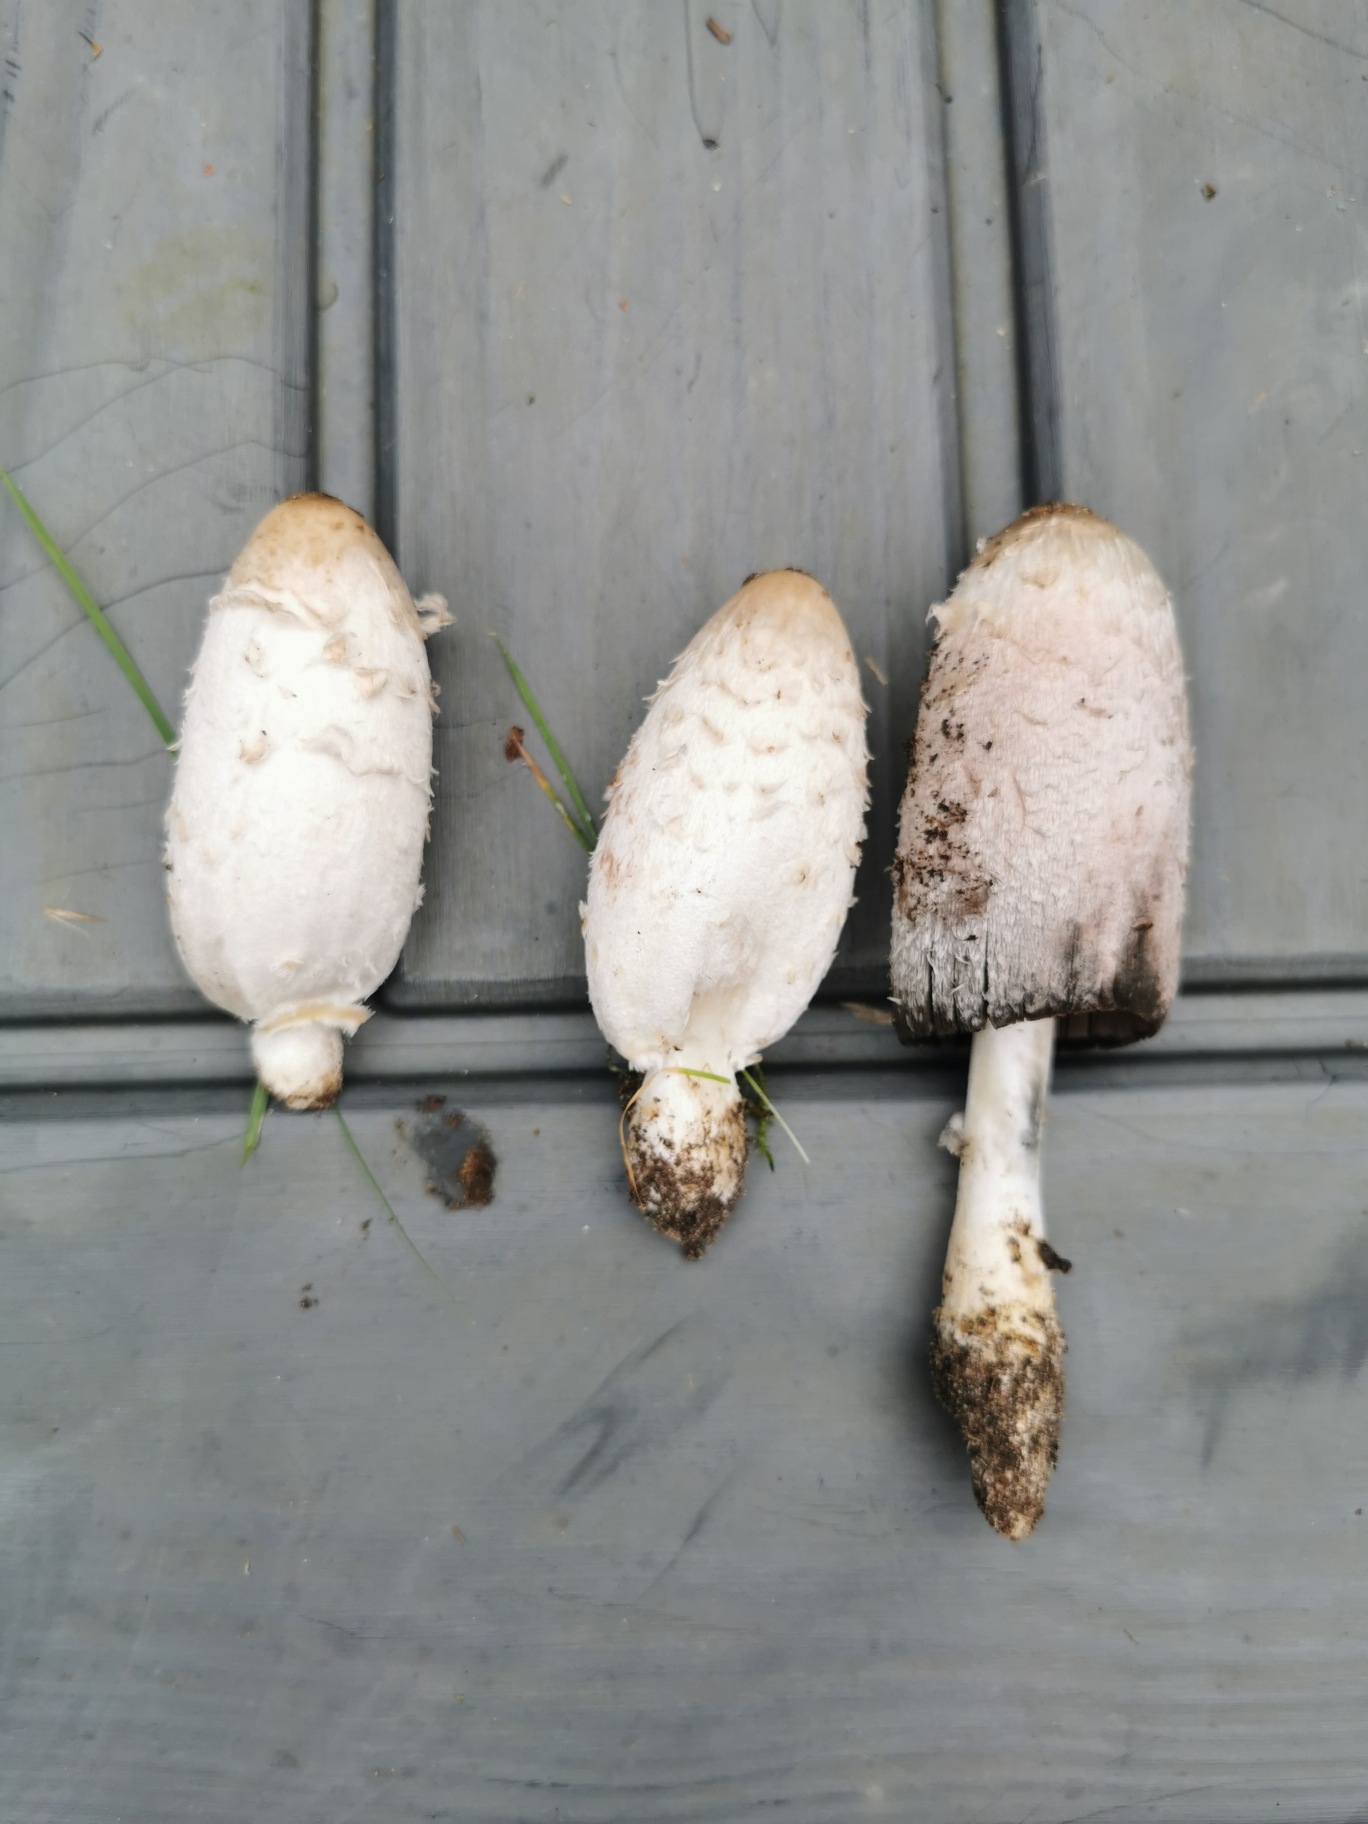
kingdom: Fungi
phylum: Basidiomycota
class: Agaricomycetes
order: Agaricales
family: Agaricaceae
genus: Coprinus
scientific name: Coprinus comatus
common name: Stor parykhat
